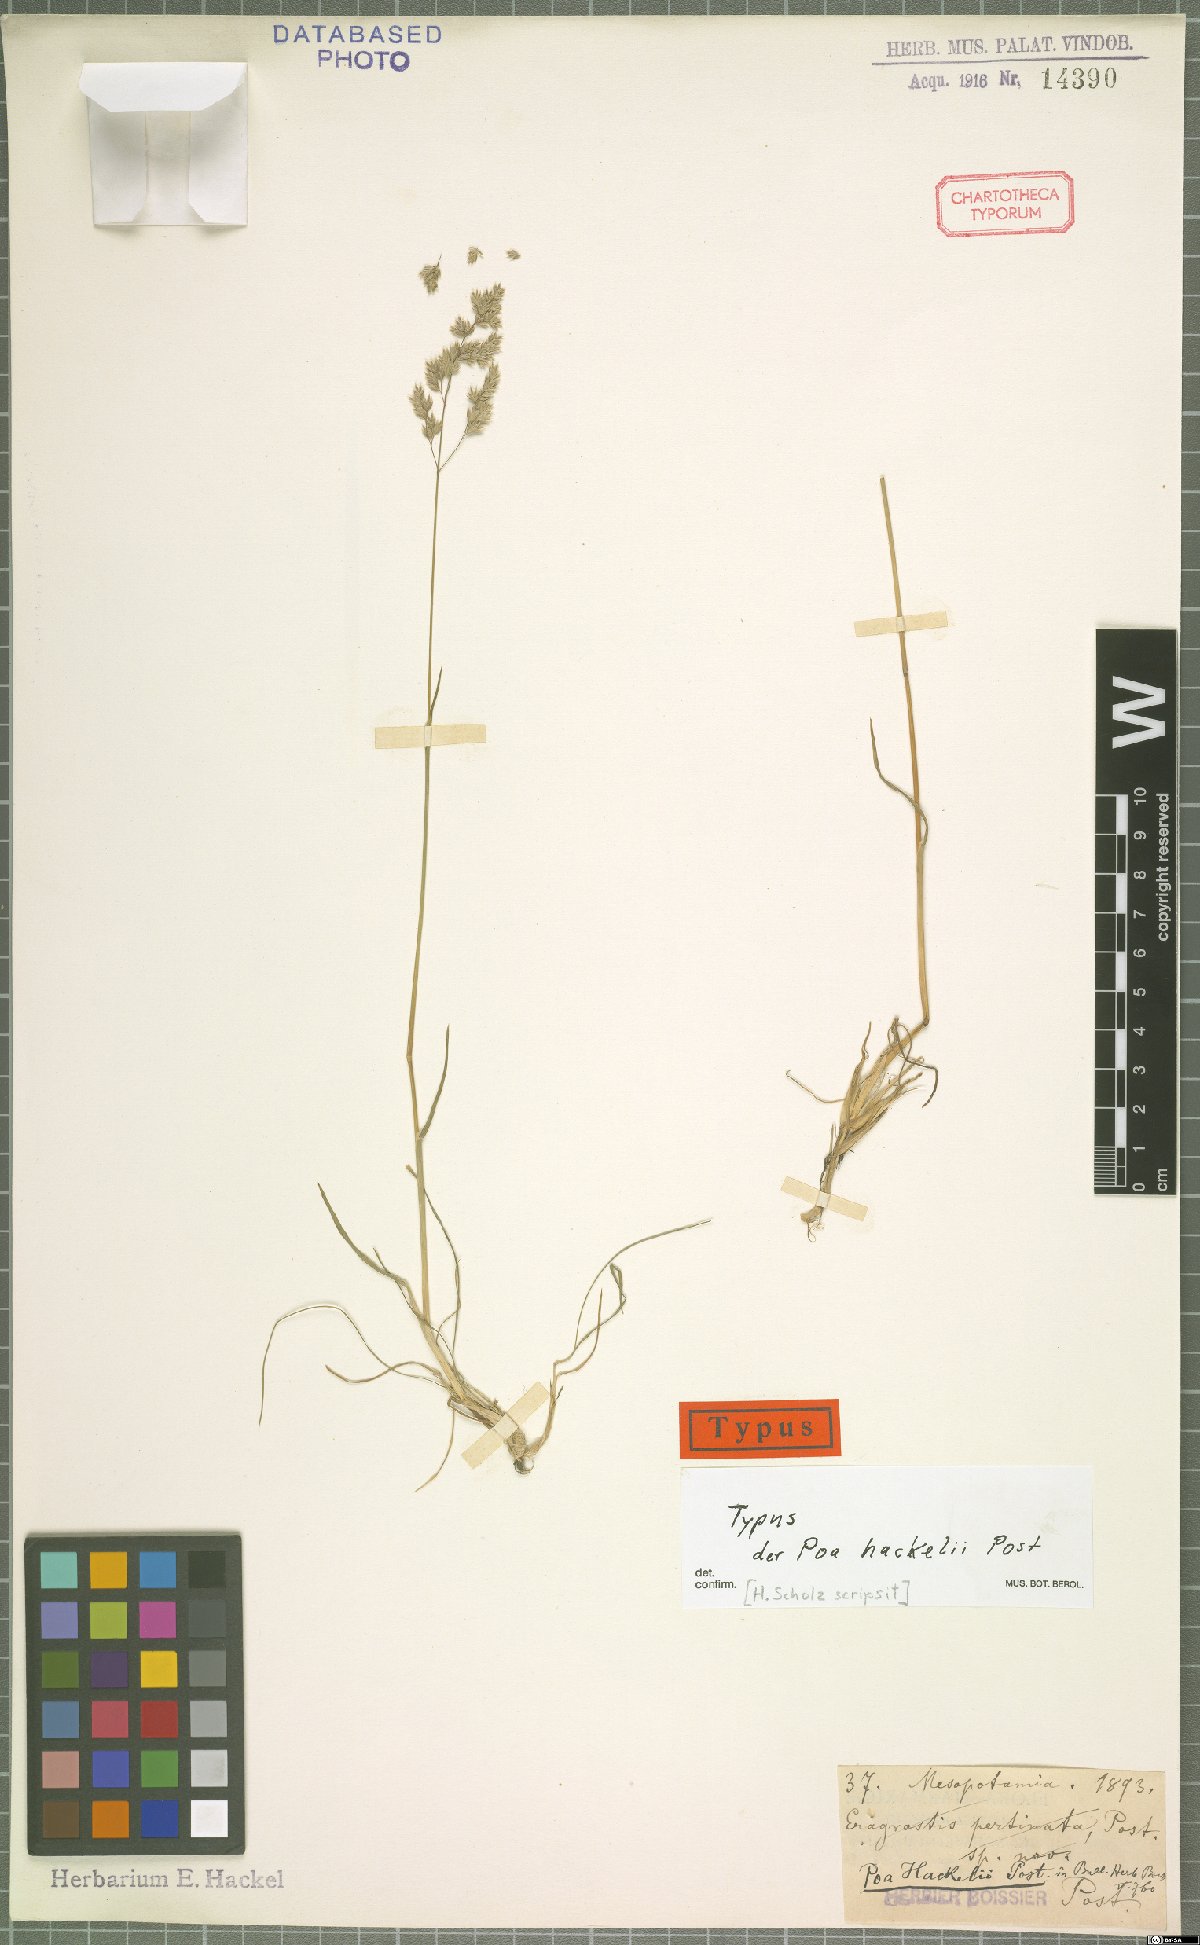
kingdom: Plantae
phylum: Tracheophyta
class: Liliopsida
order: Poales
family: Poaceae
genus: Poa
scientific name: Poa hackelii
